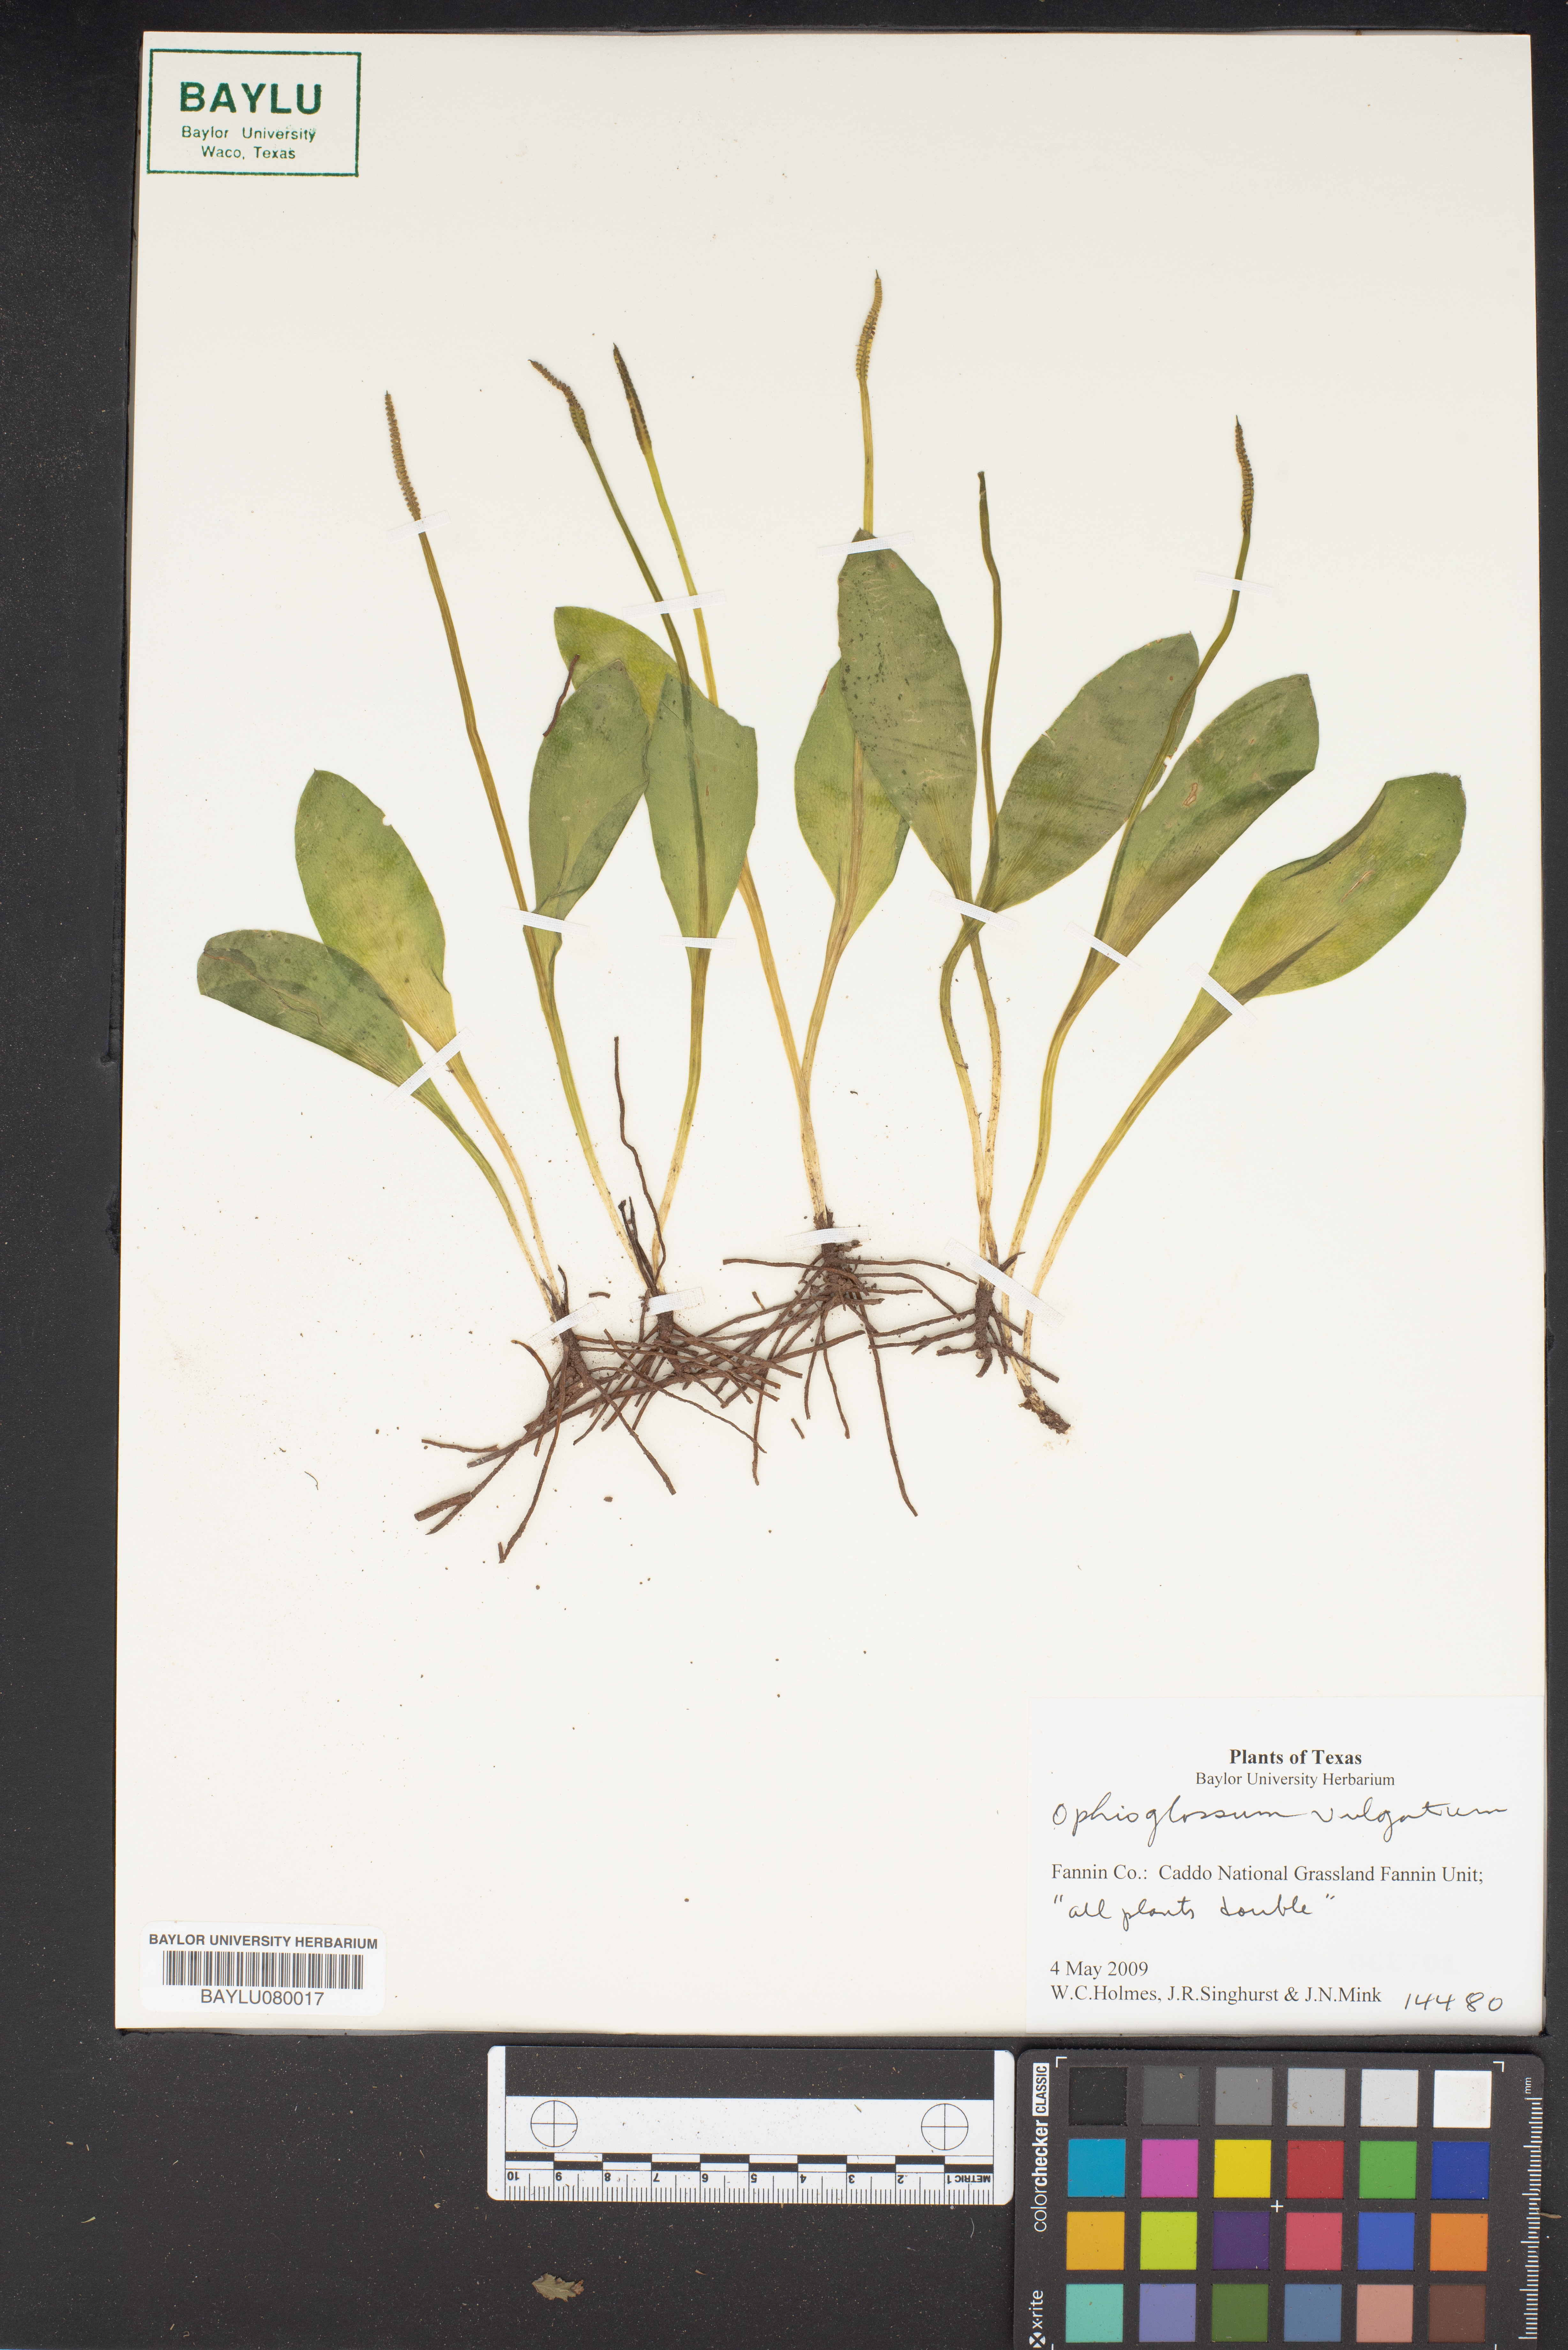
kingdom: Plantae
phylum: Tracheophyta
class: Polypodiopsida
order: Ophioglossales
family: Ophioglossaceae
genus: Ophioglossum
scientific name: Ophioglossum vulgatum
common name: Adder's-tongue
